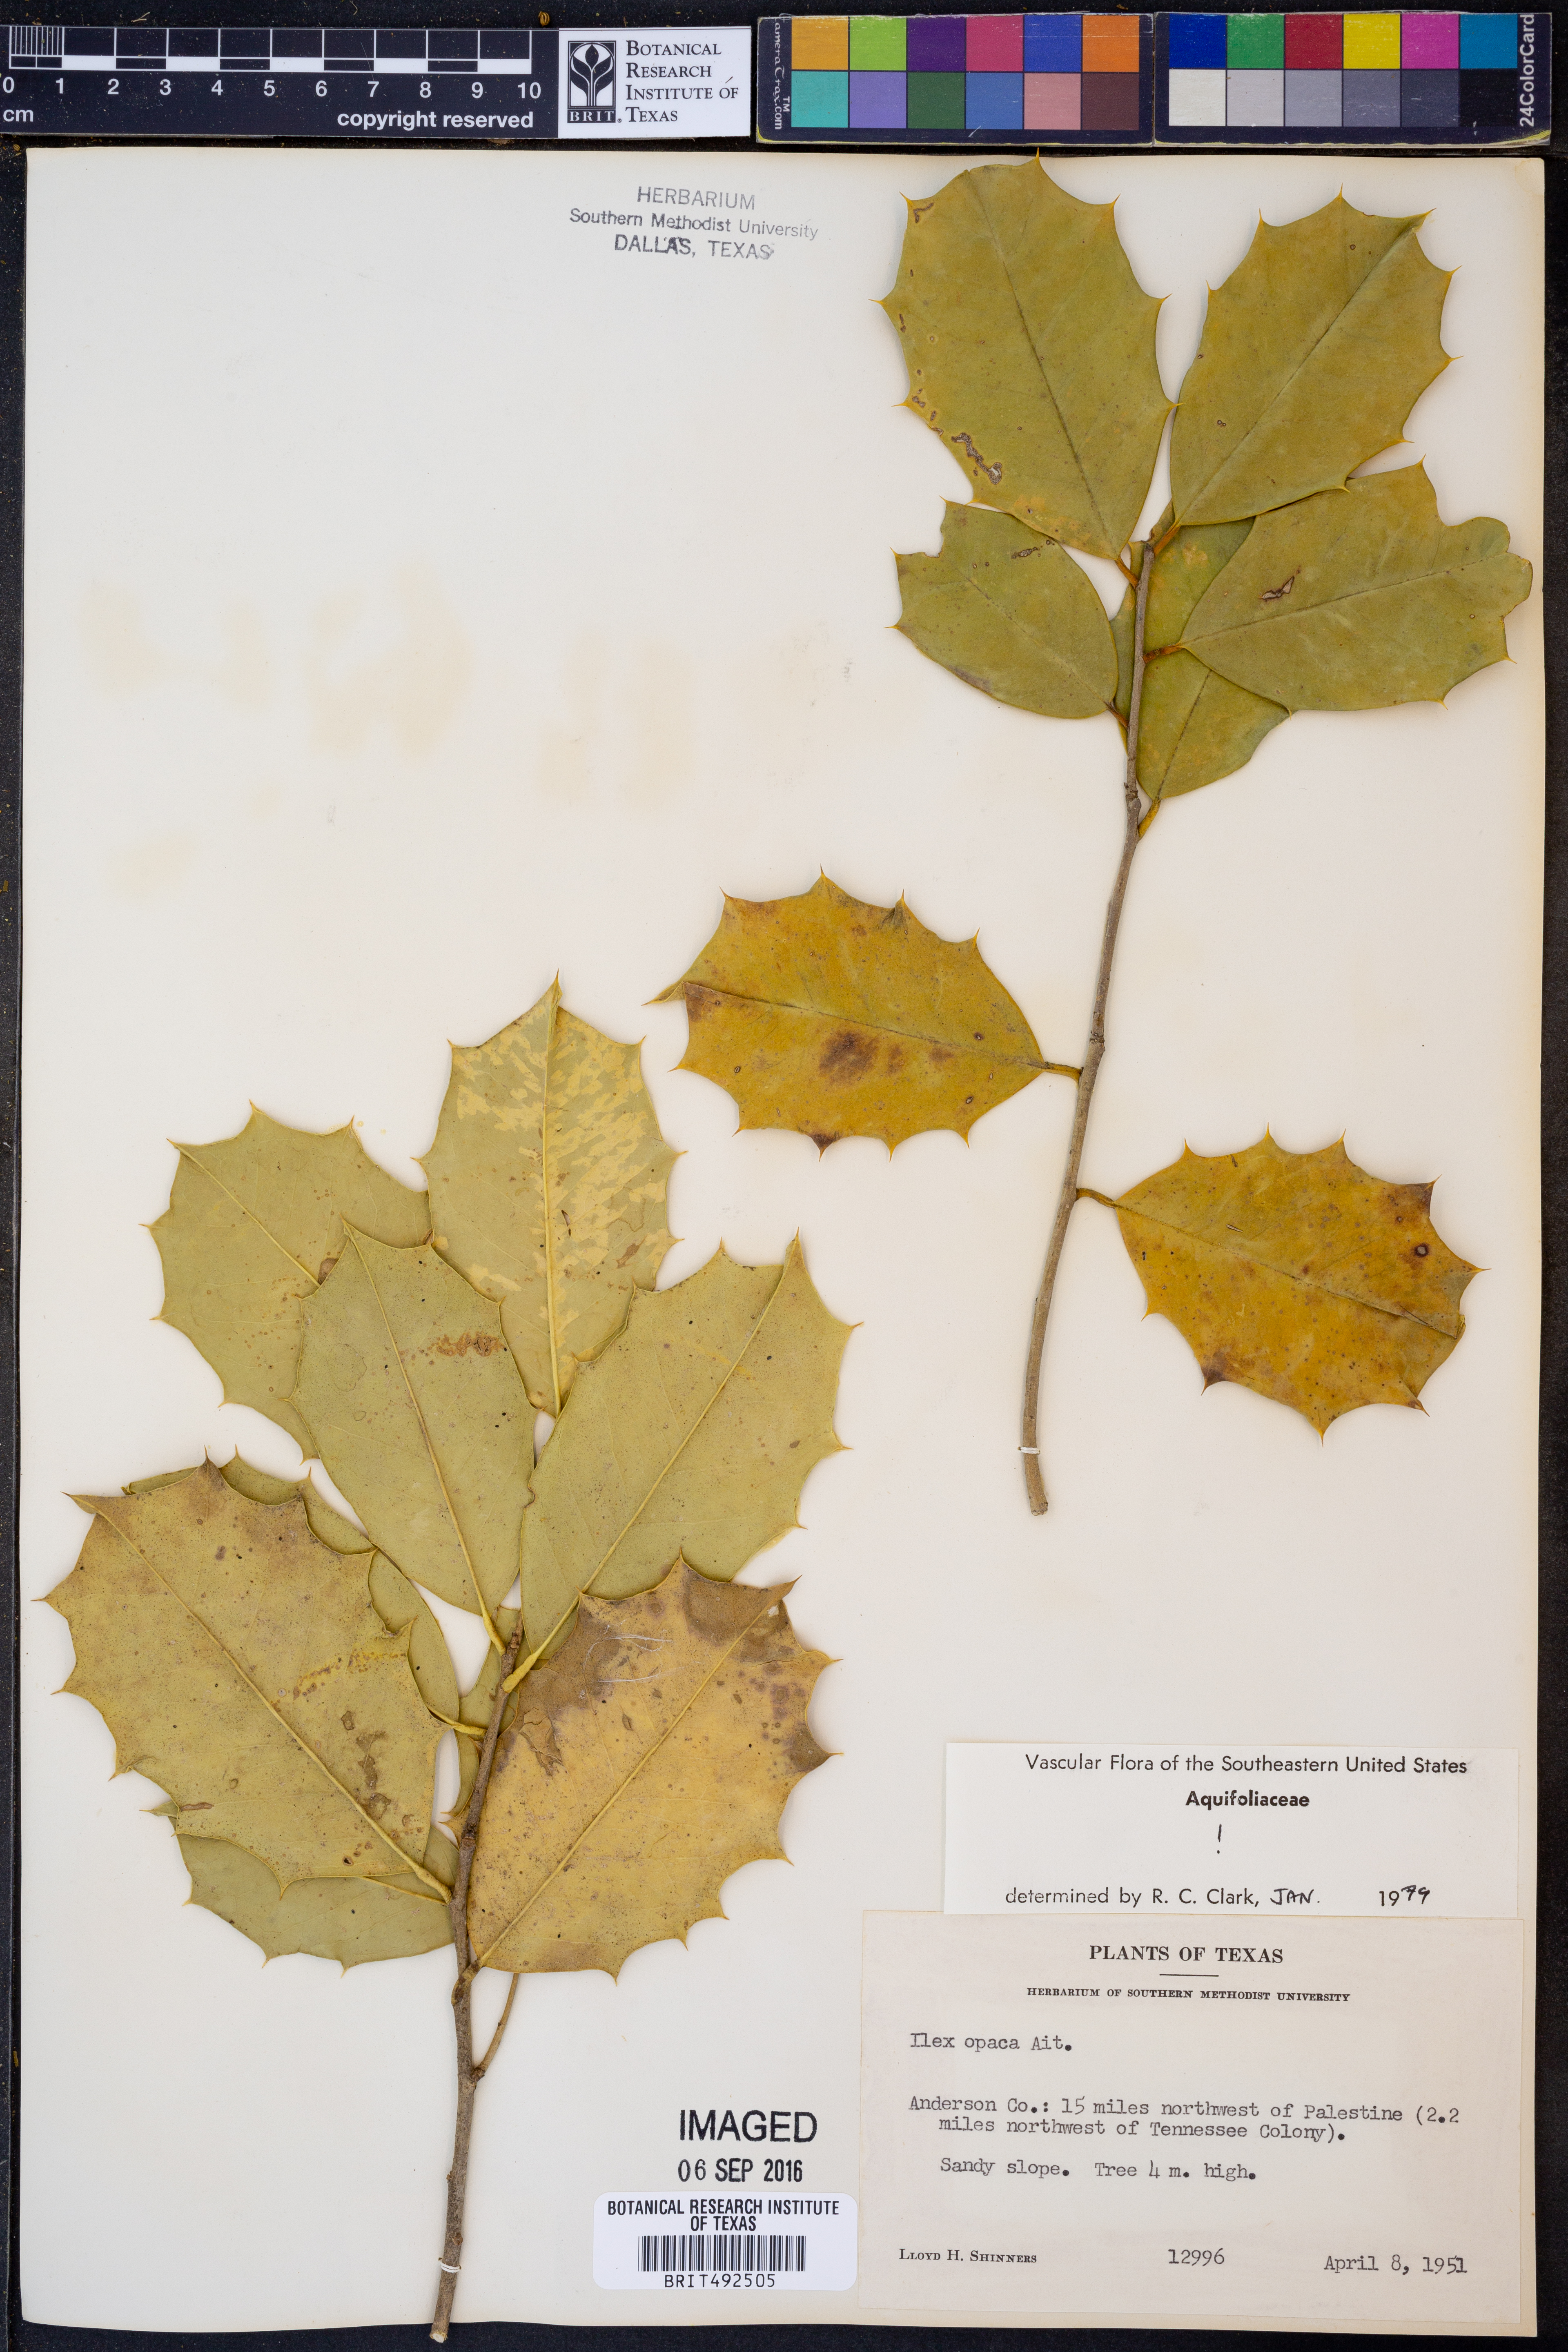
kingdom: Plantae
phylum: Tracheophyta
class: Magnoliopsida
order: Aquifoliales
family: Aquifoliaceae
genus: Ilex
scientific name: Ilex opaca
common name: American holly
